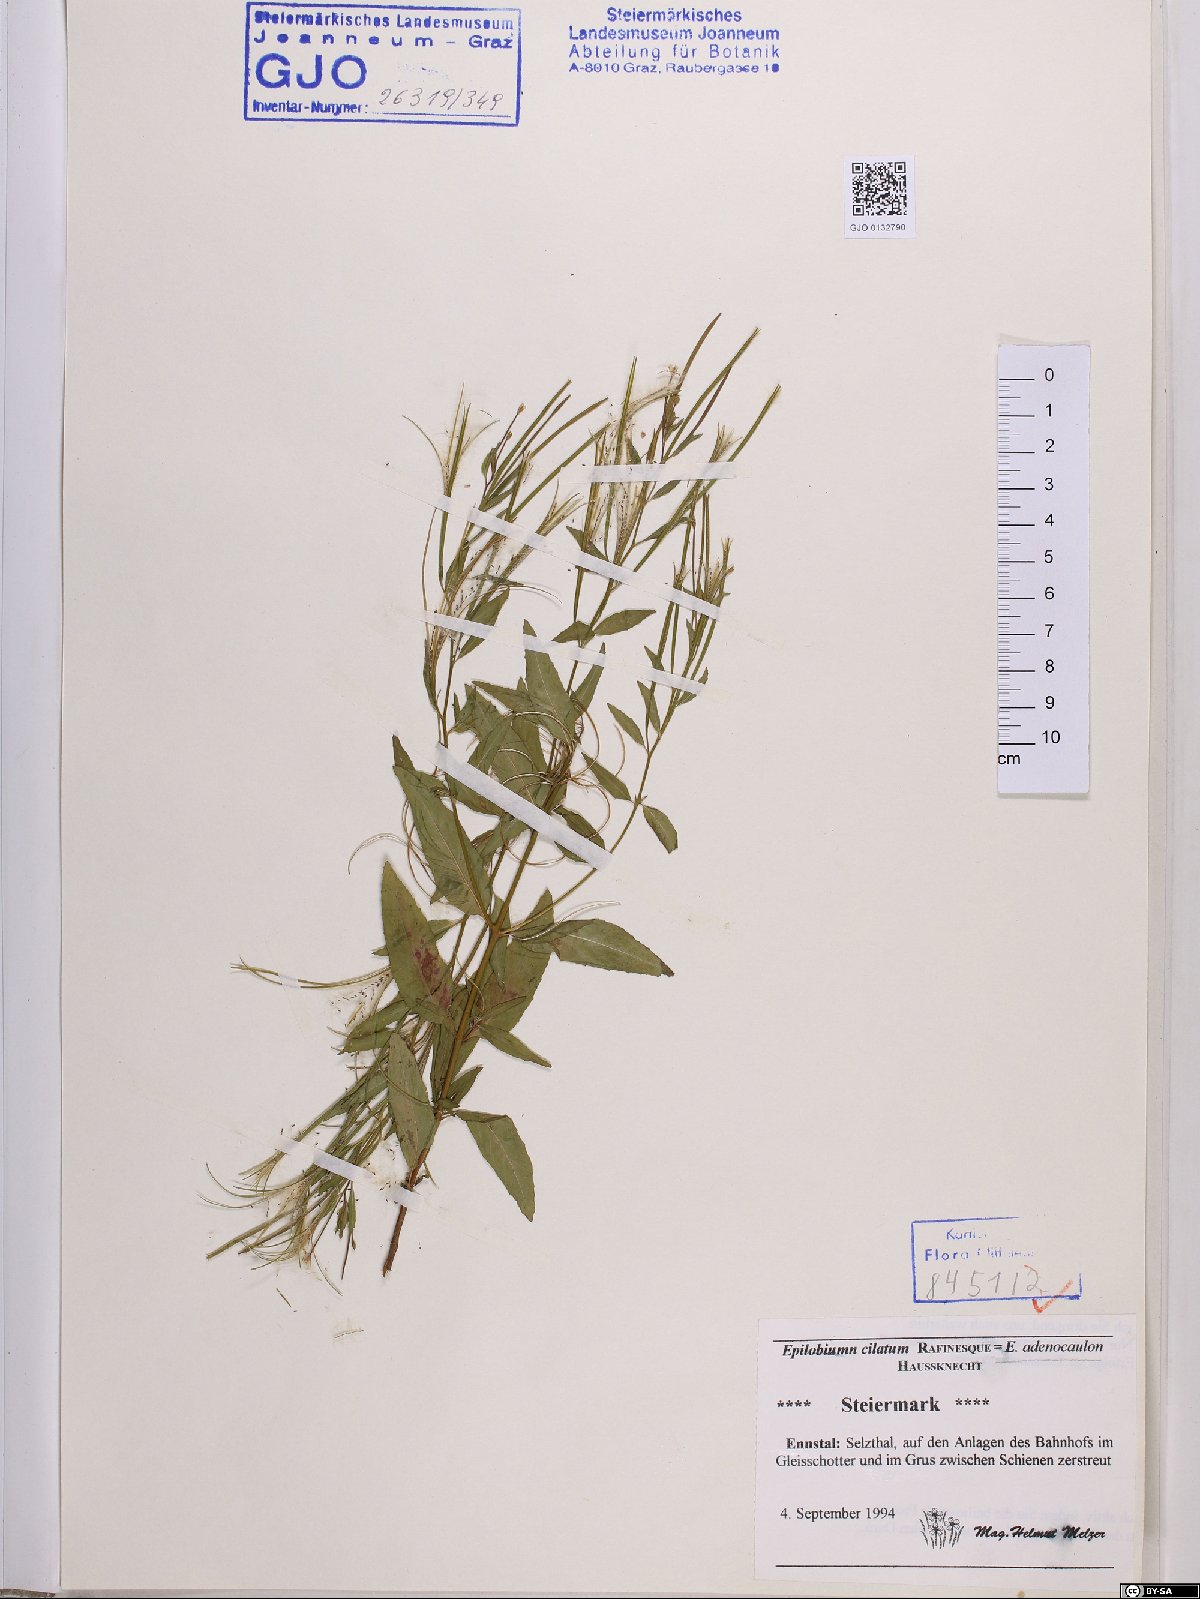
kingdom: Plantae
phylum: Tracheophyta
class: Magnoliopsida
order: Myrtales
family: Onagraceae
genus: Epilobium
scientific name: Epilobium ciliatum
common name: American willowherb
